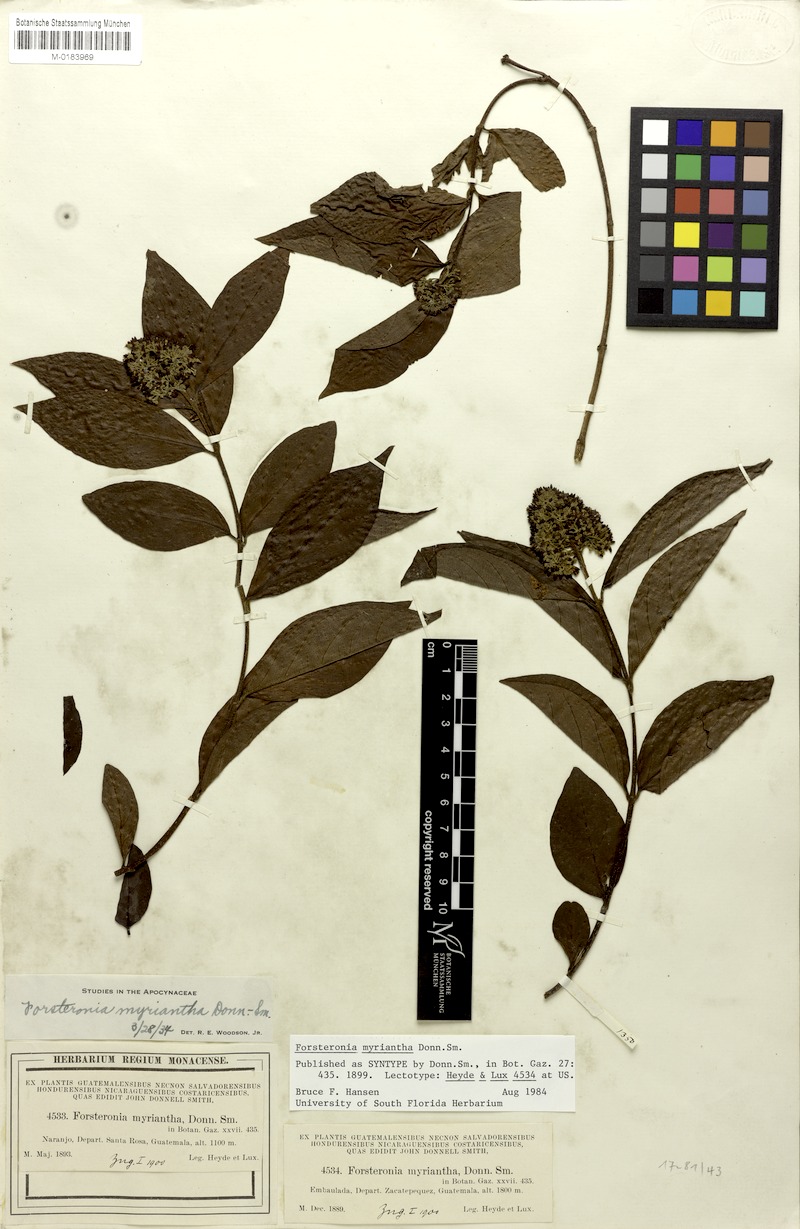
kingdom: Plantae
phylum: Tracheophyta
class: Magnoliopsida
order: Gentianales
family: Apocynaceae
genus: Forsteronia
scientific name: Forsteronia myriantha
